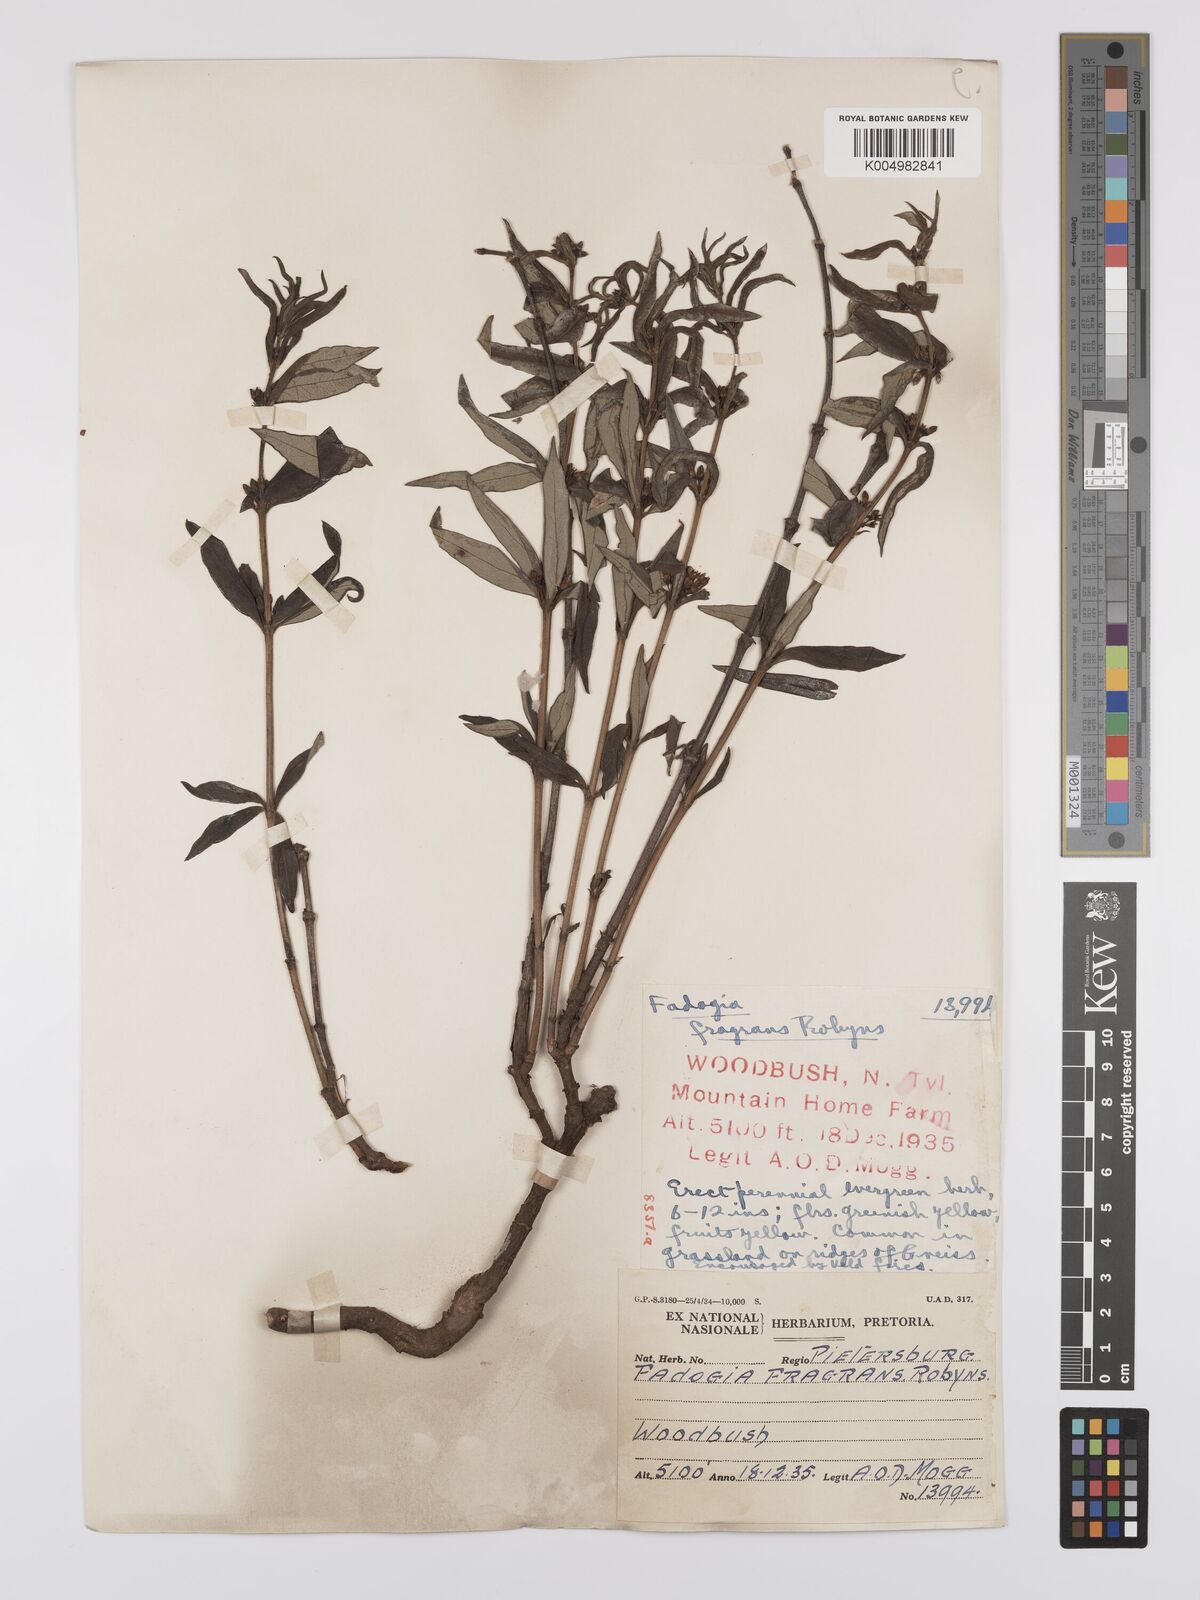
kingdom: Plantae
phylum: Tracheophyta
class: Magnoliopsida
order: Gentianales
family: Rubiaceae
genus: Fadogia
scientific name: Fadogia triphylla
